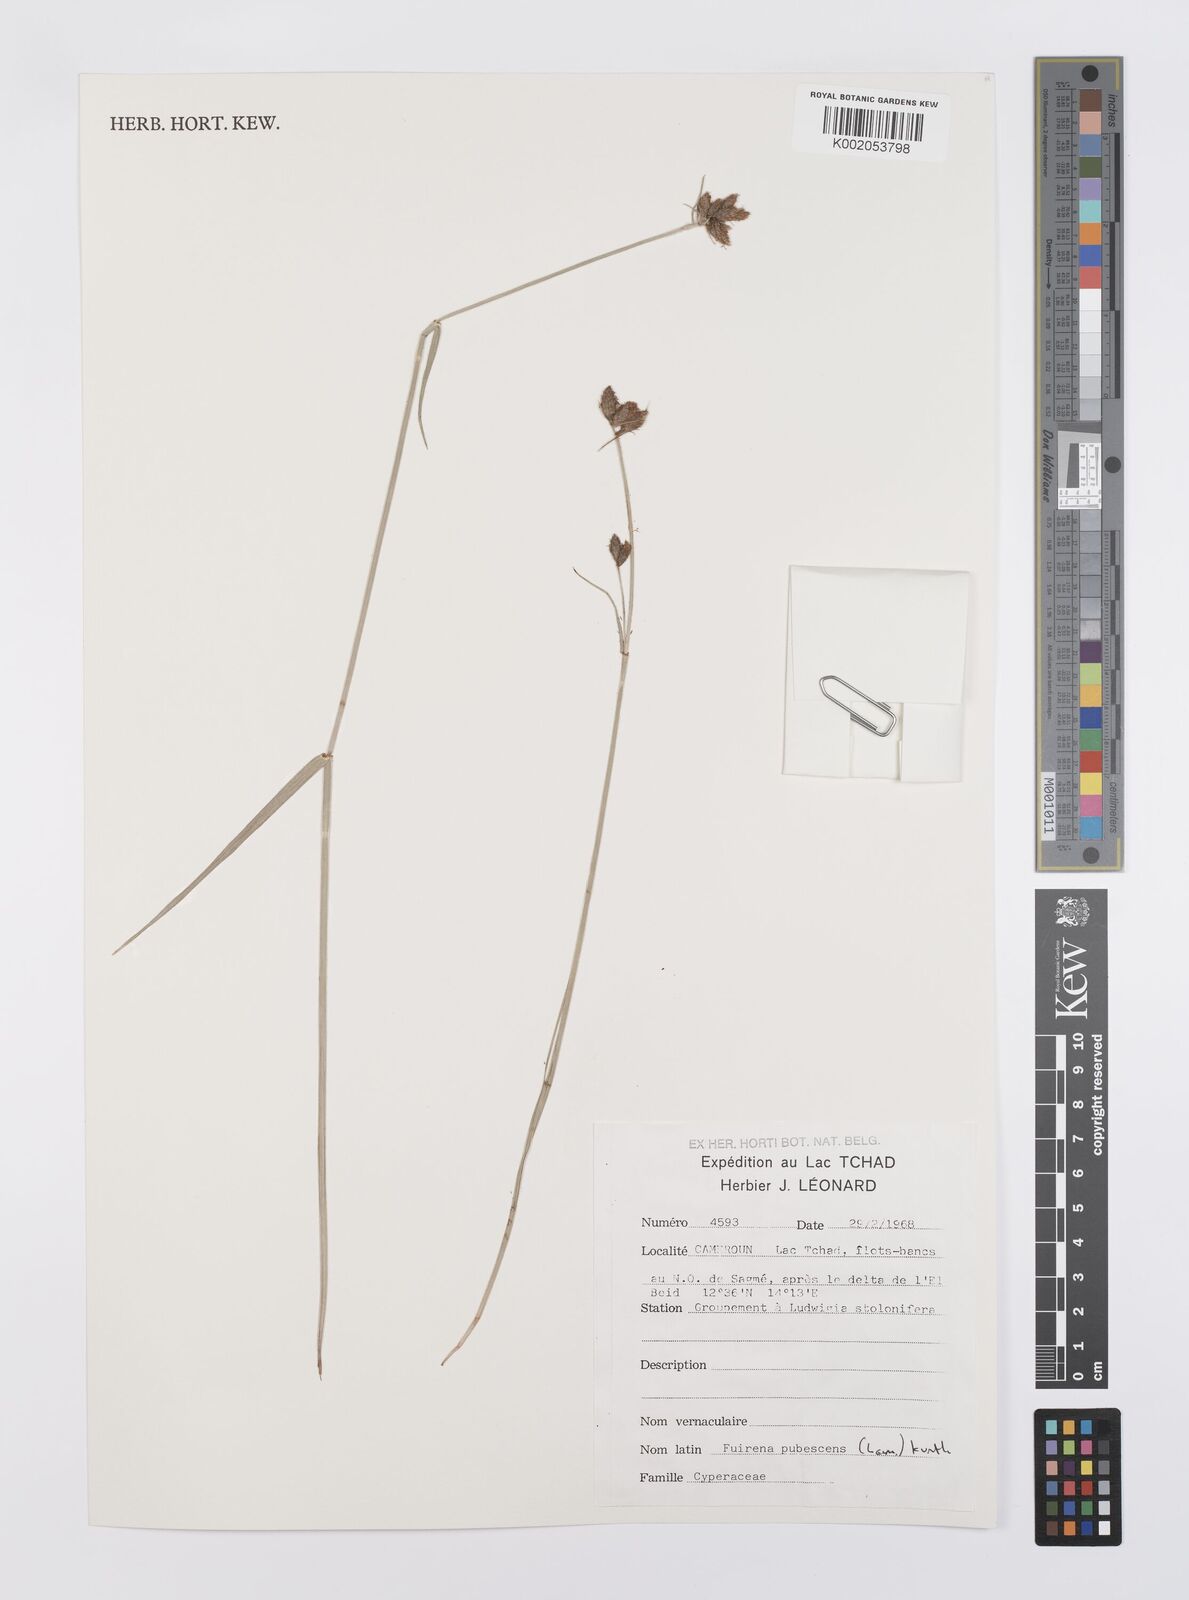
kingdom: Plantae
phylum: Tracheophyta
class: Liliopsida
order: Poales
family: Cyperaceae
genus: Fuirena
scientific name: Fuirena pubescens
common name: Hairy sedge
